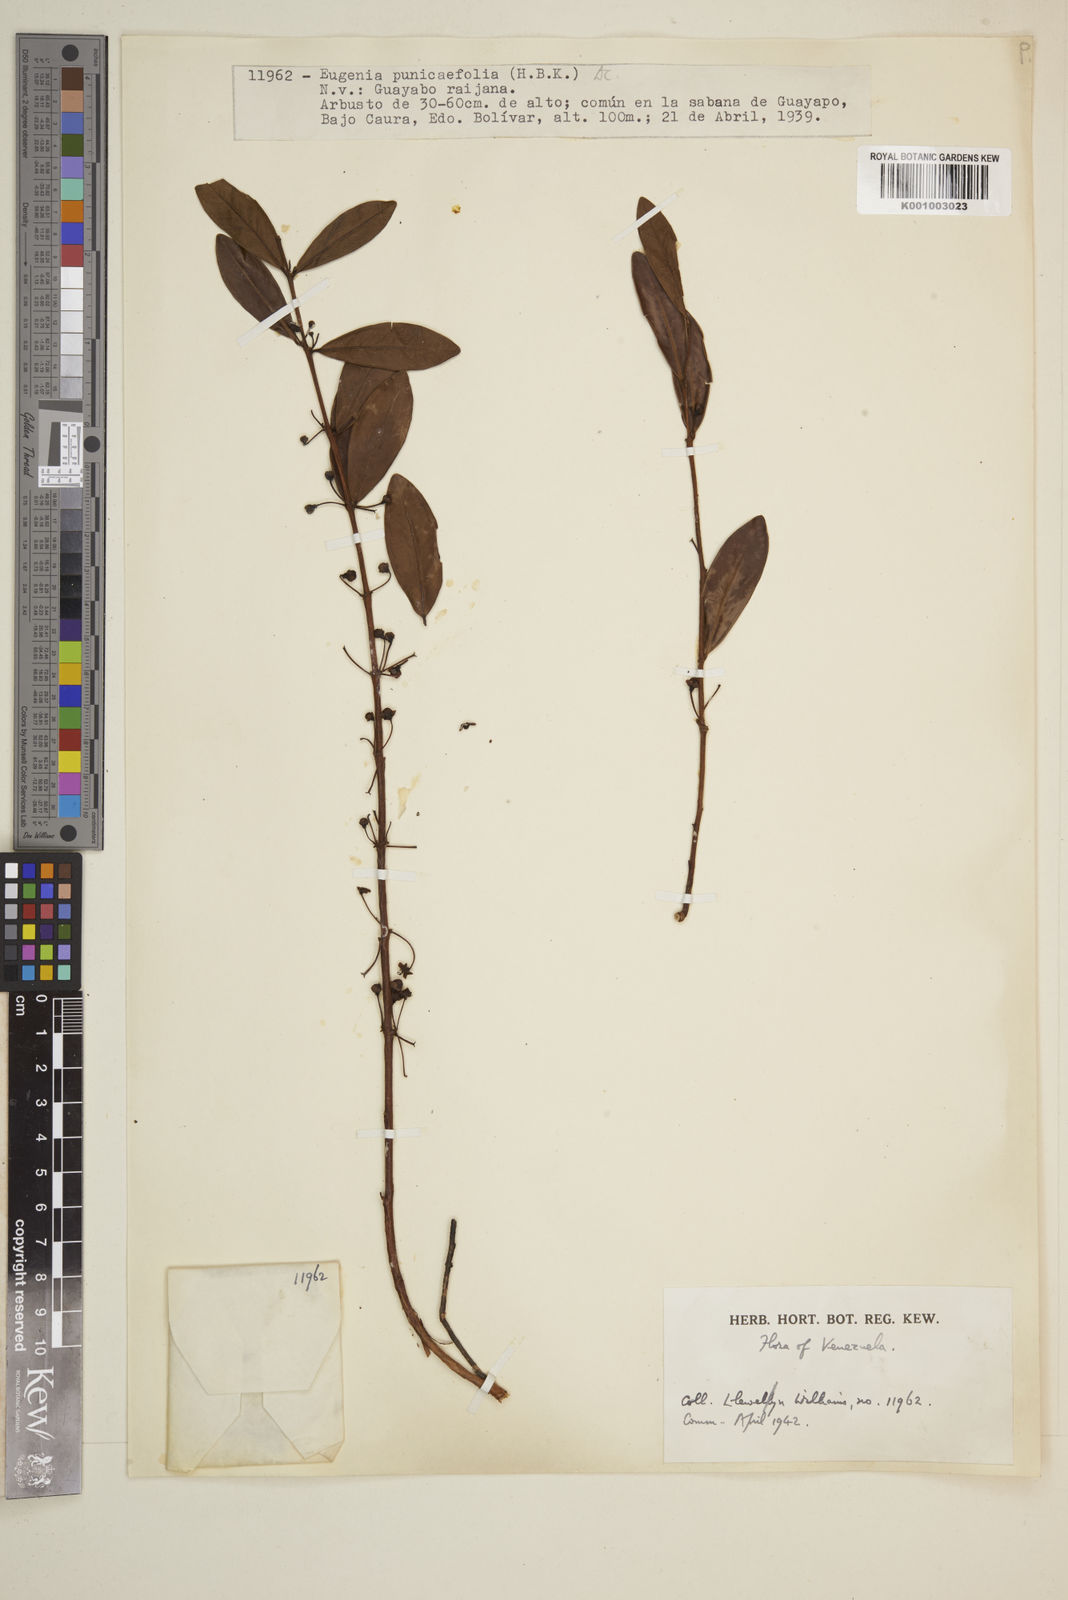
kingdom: Plantae
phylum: Tracheophyta
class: Magnoliopsida
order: Myrtales
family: Myrtaceae
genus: Eugenia
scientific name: Eugenia punicifolia
